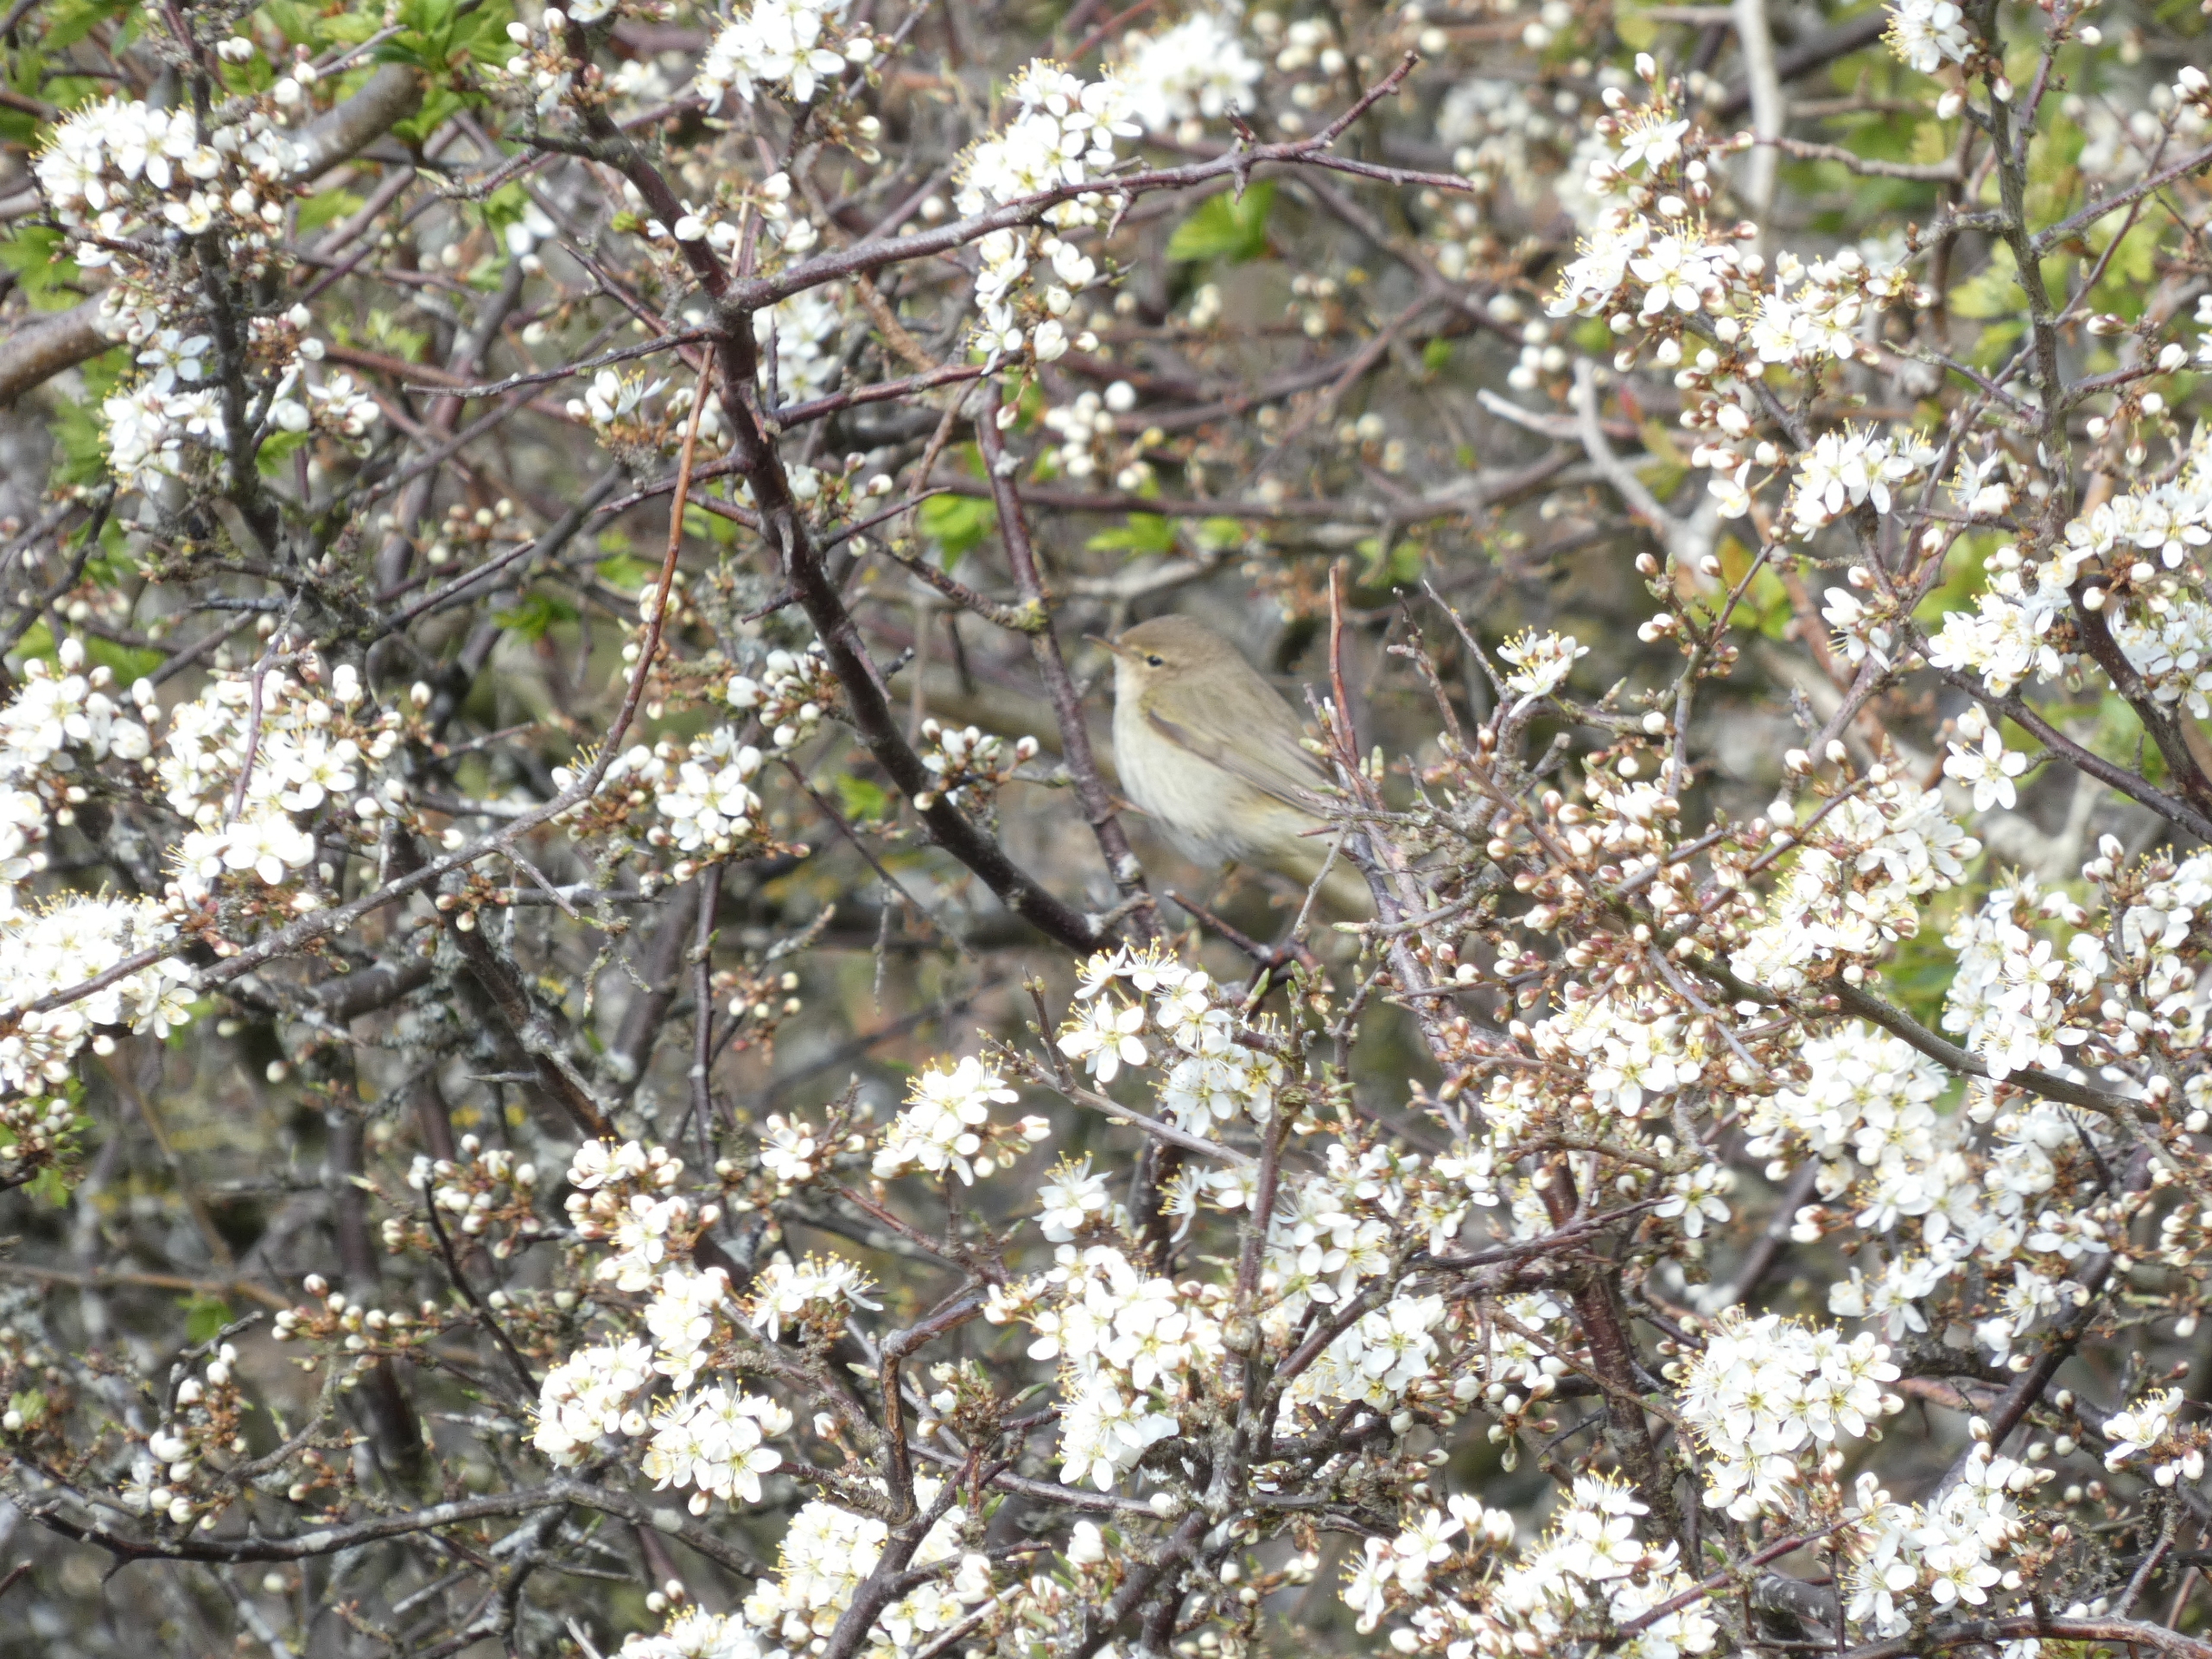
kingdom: Animalia
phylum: Chordata
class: Aves
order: Passeriformes
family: Phylloscopidae
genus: Phylloscopus
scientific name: Phylloscopus collybita
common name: Gransanger
